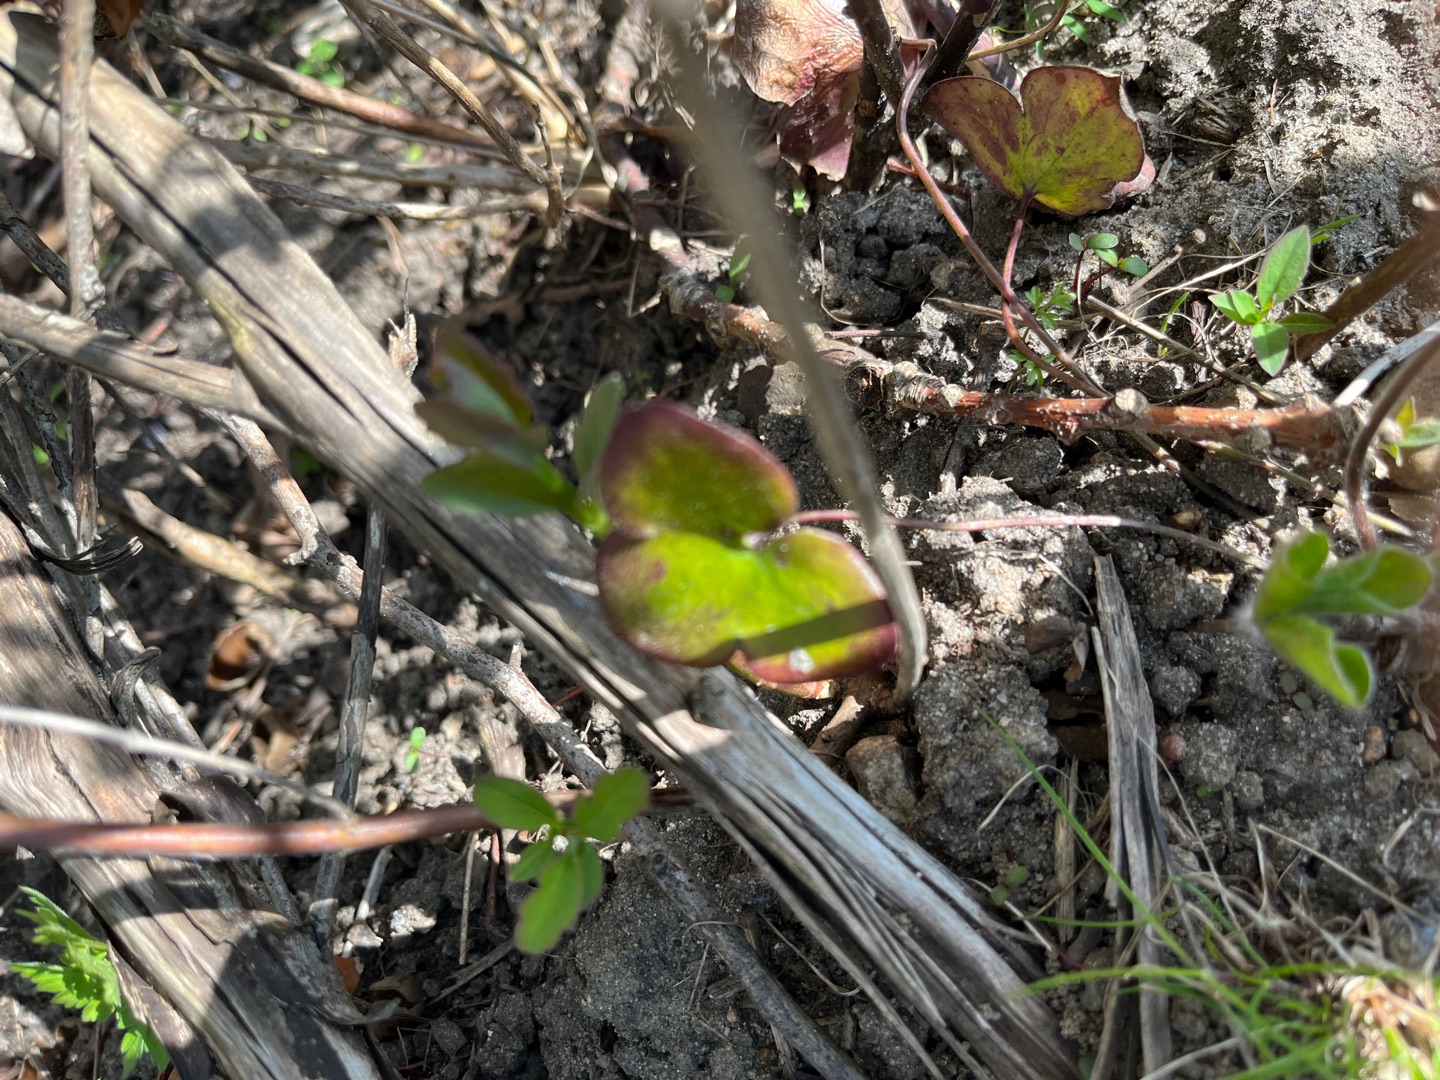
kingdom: Plantae
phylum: Tracheophyta
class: Magnoliopsida
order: Ranunculales
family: Ranunculaceae
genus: Hepatica
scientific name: Hepatica nobilis
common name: Blå anemone
